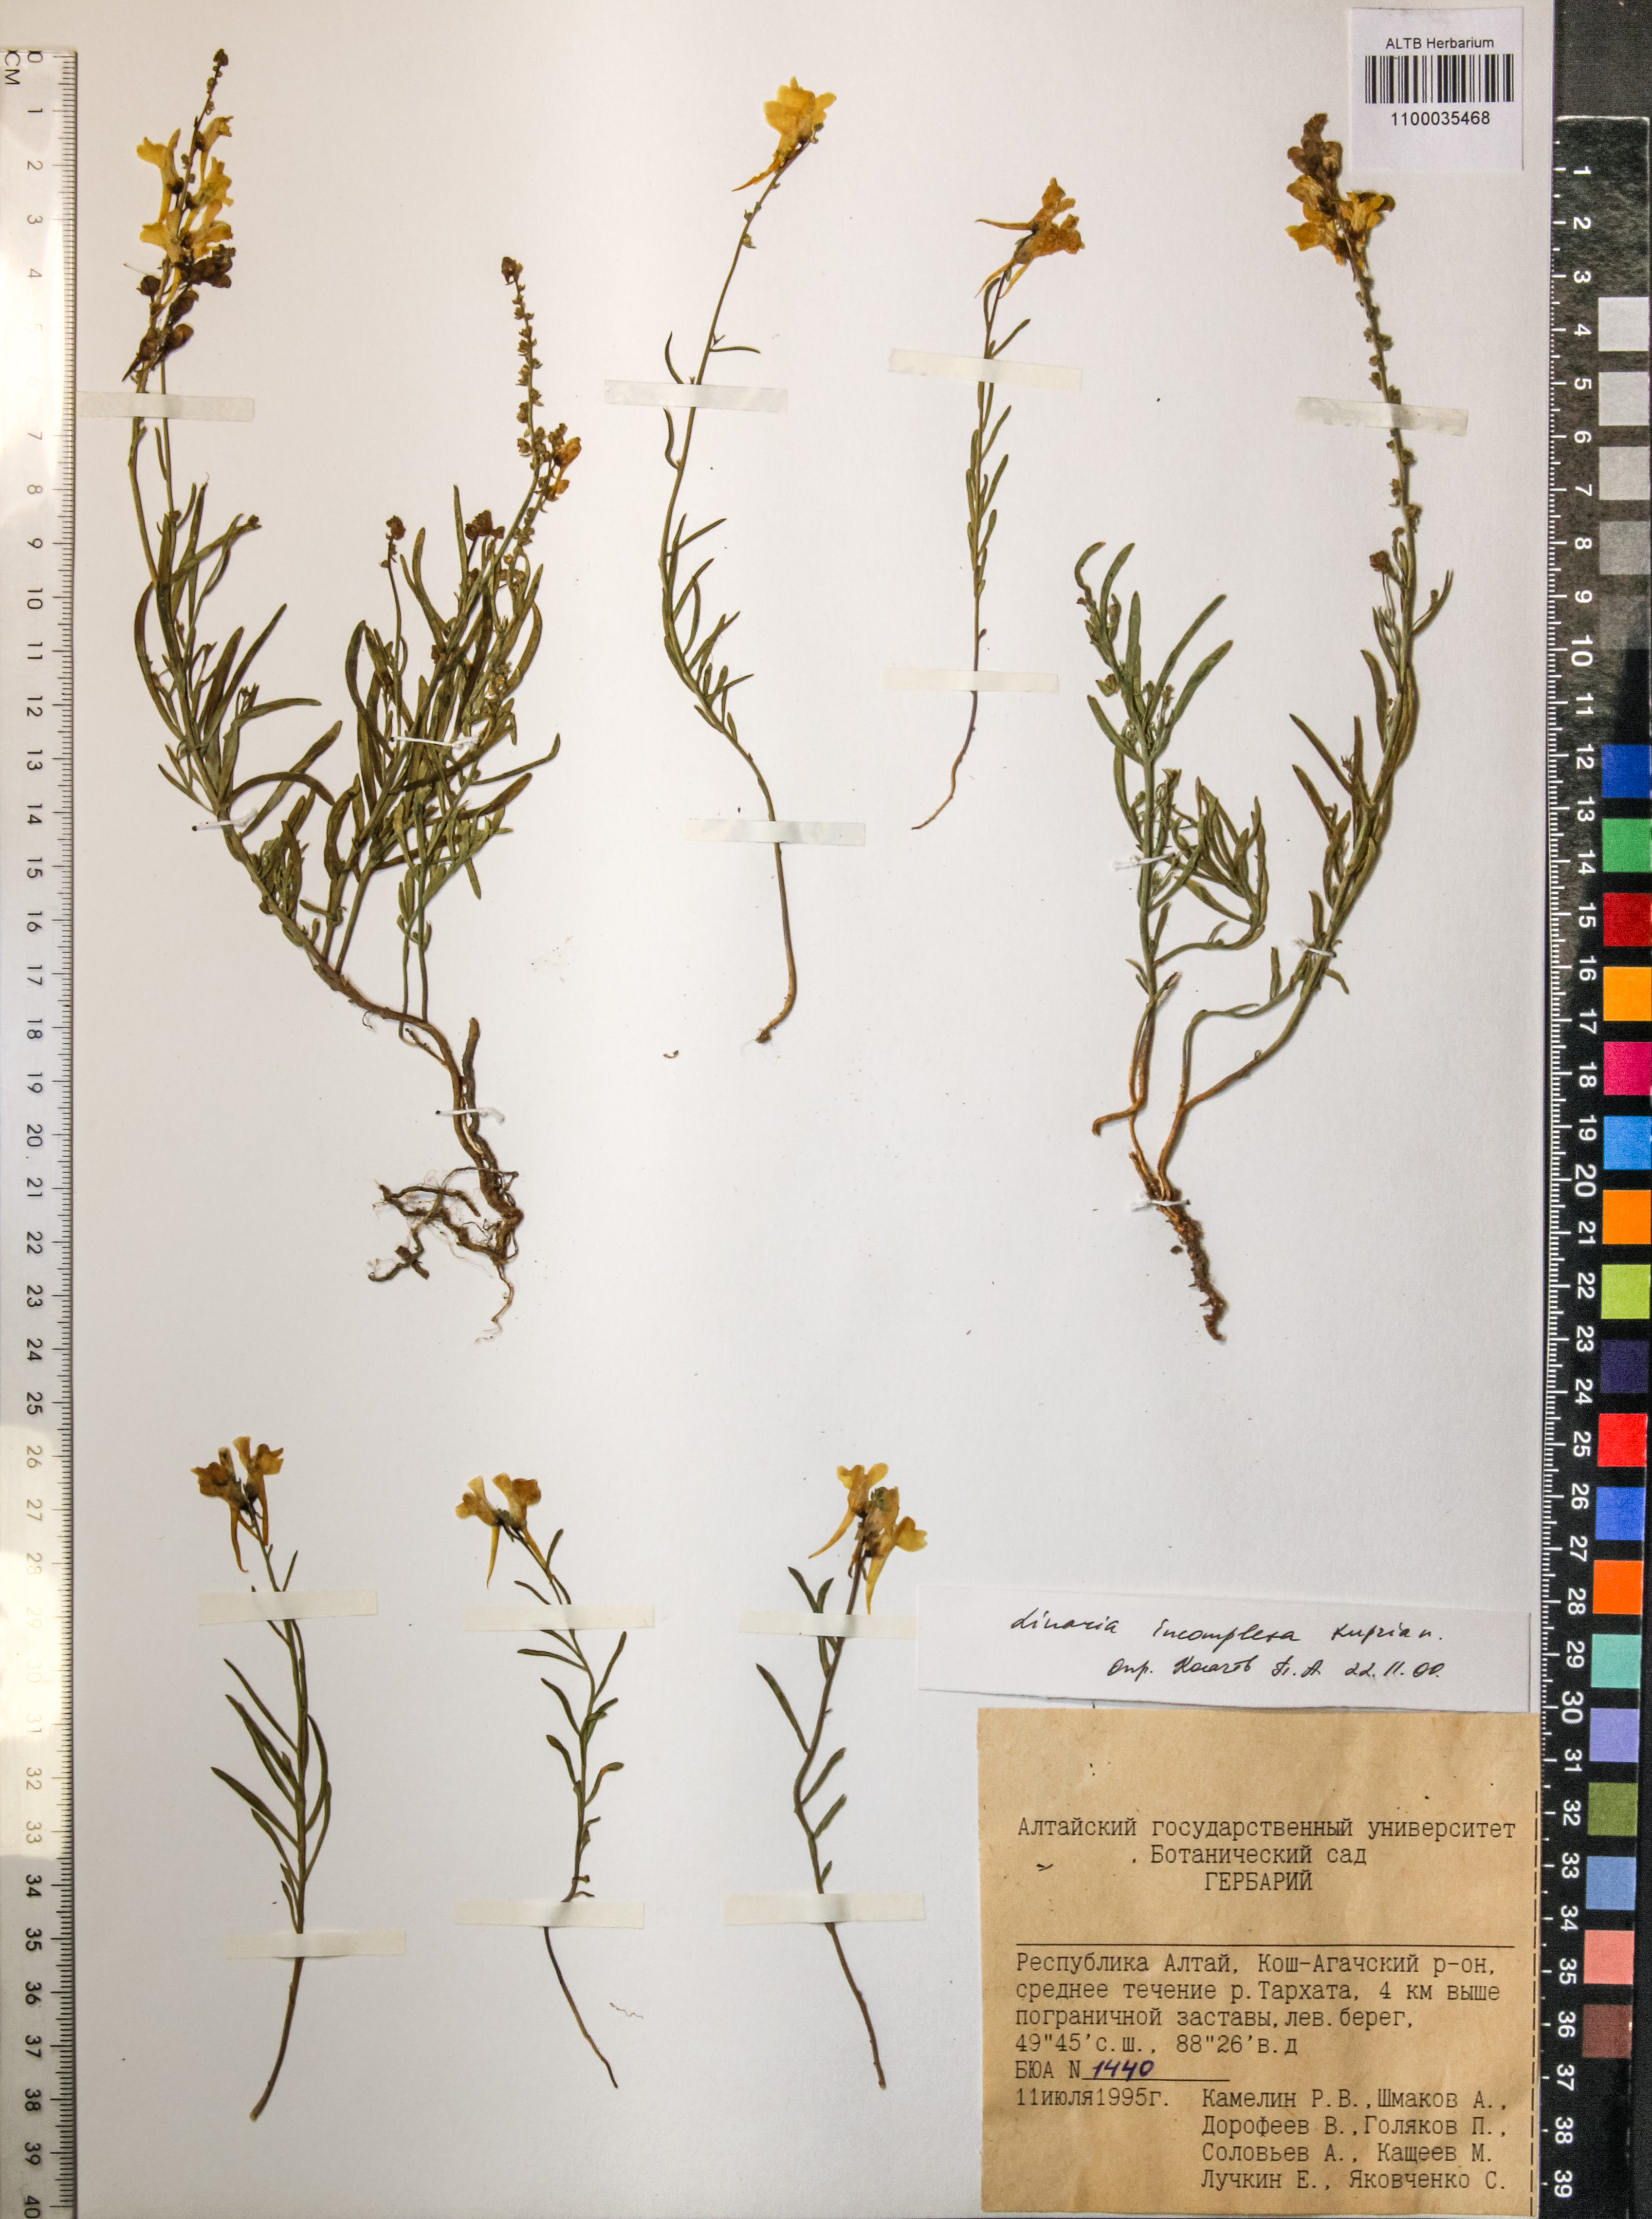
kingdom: Plantae
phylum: Tracheophyta
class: Magnoliopsida
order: Lamiales
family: Plantaginaceae
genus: Linaria
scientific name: Linaria incompleta
